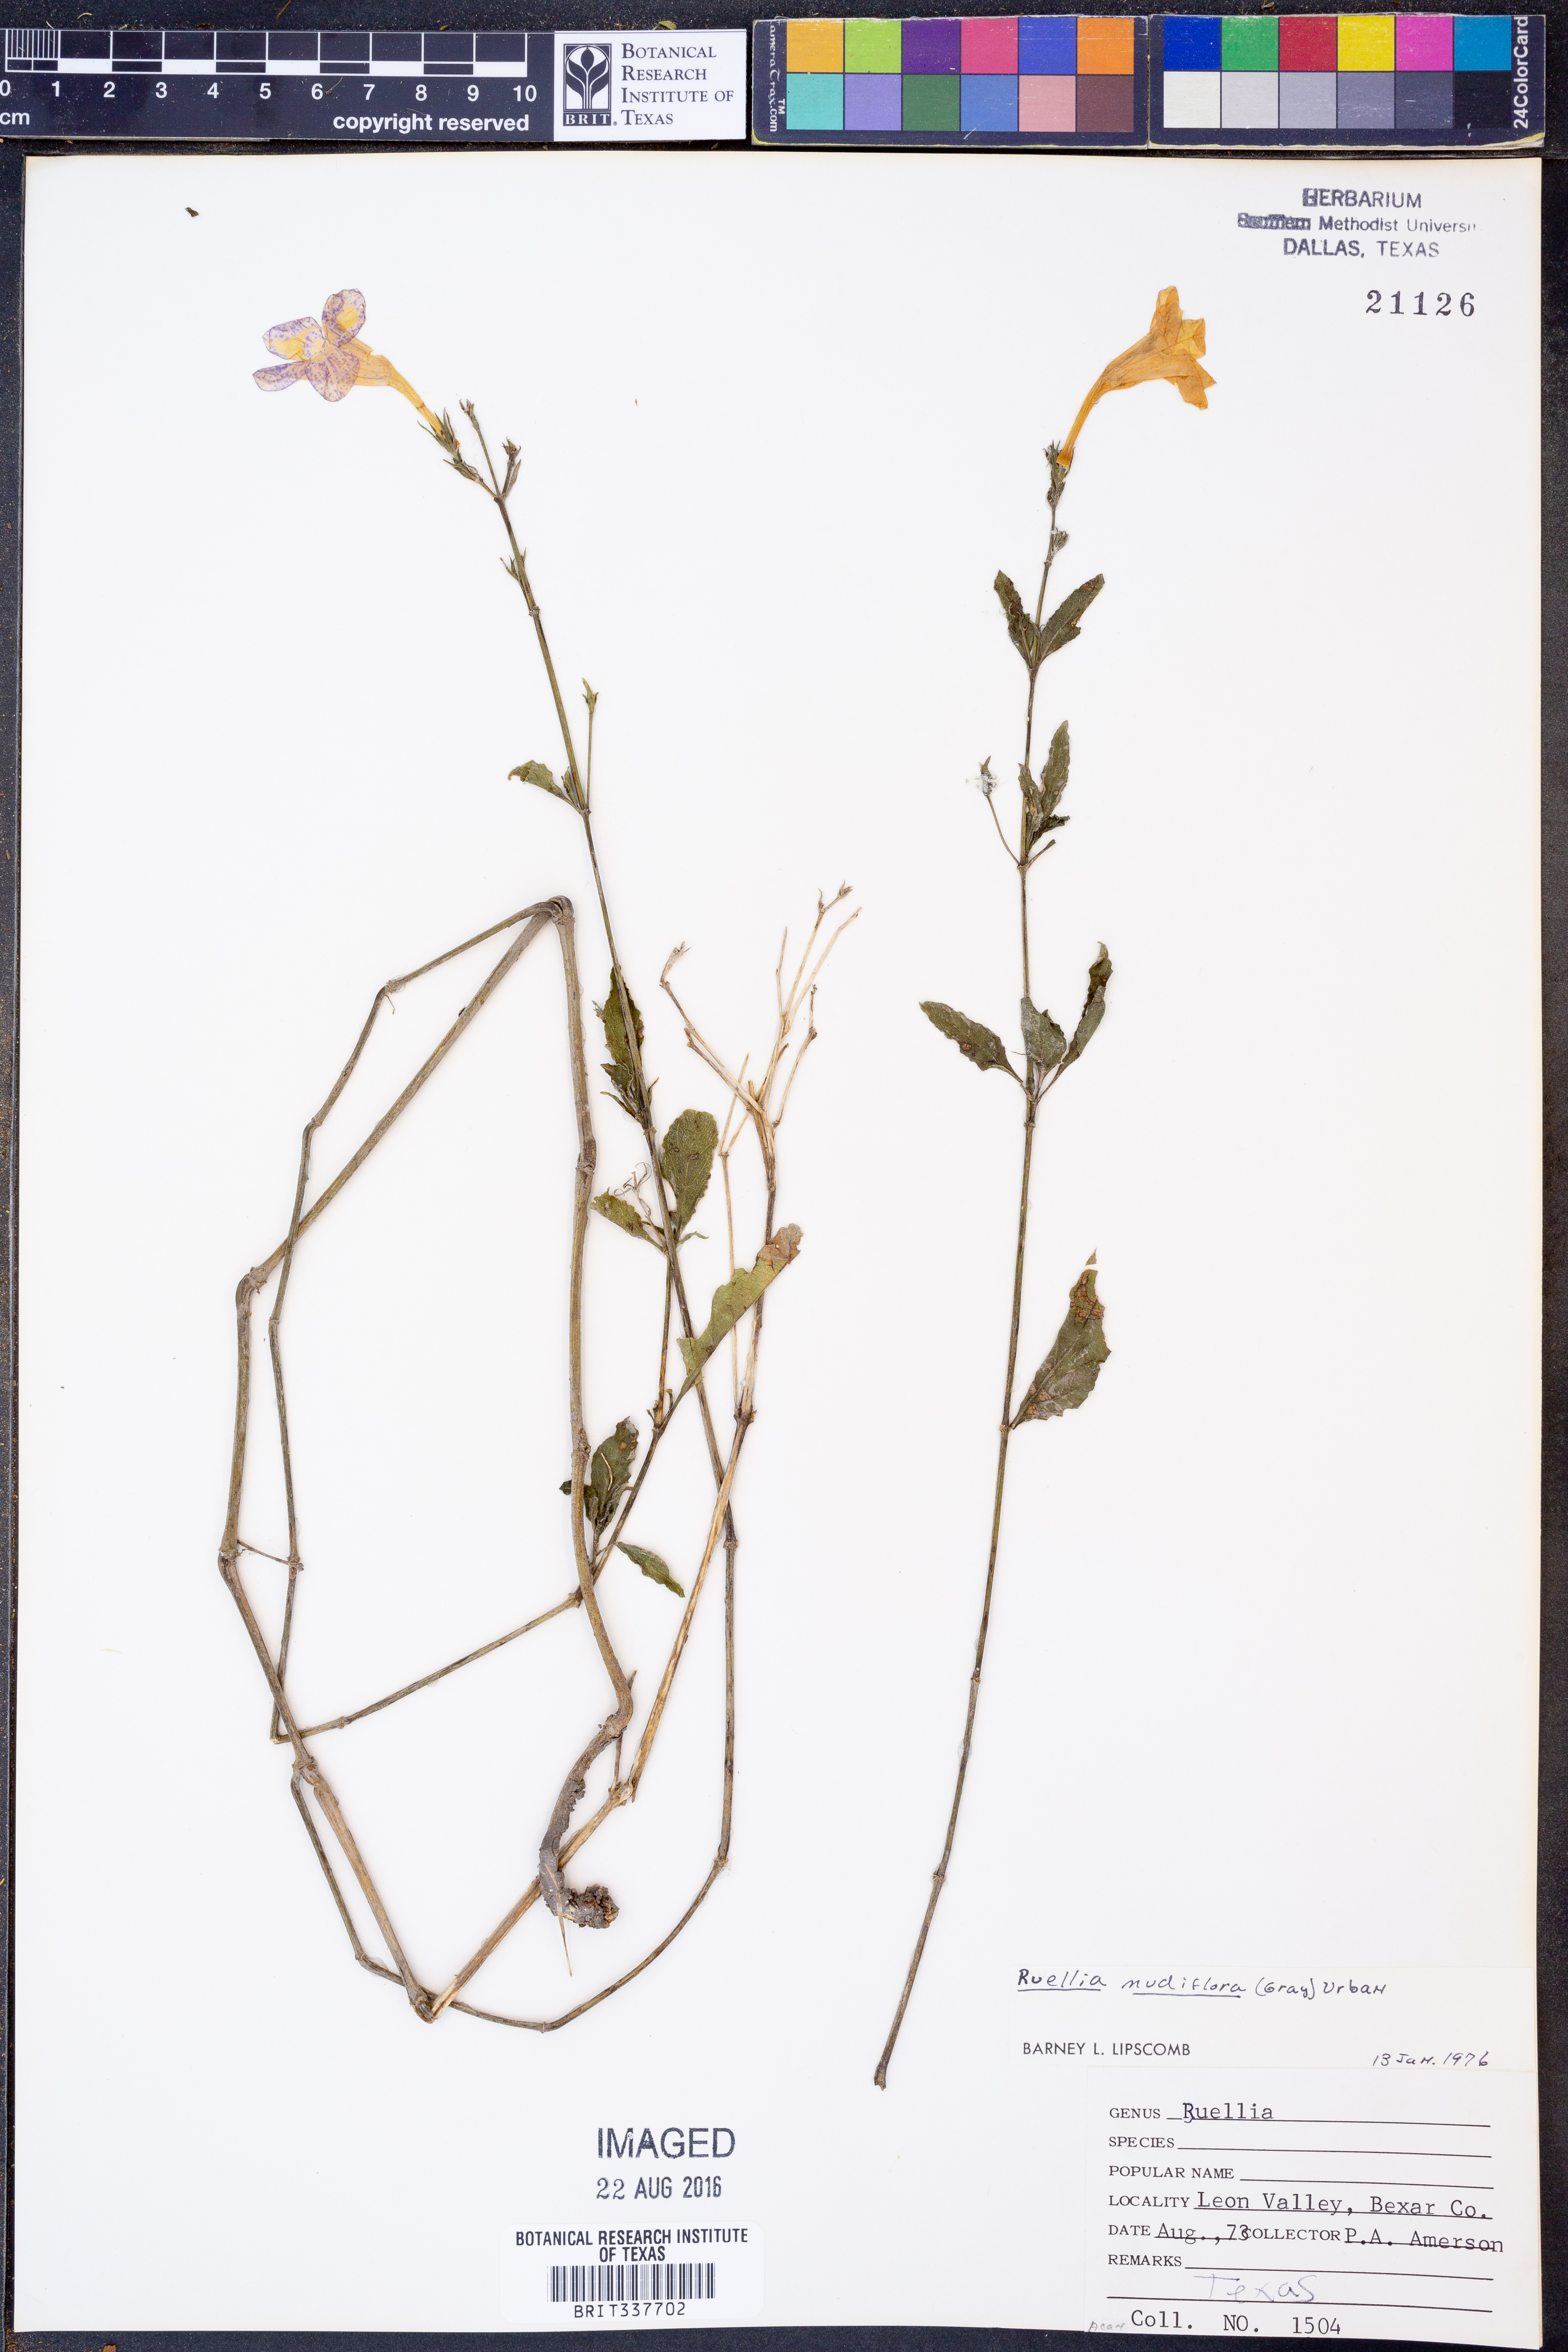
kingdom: Plantae
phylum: Tracheophyta
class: Magnoliopsida
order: Lamiales
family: Acanthaceae
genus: Ruellia
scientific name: Ruellia ciliatiflora
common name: Hairyflower wild petunia
